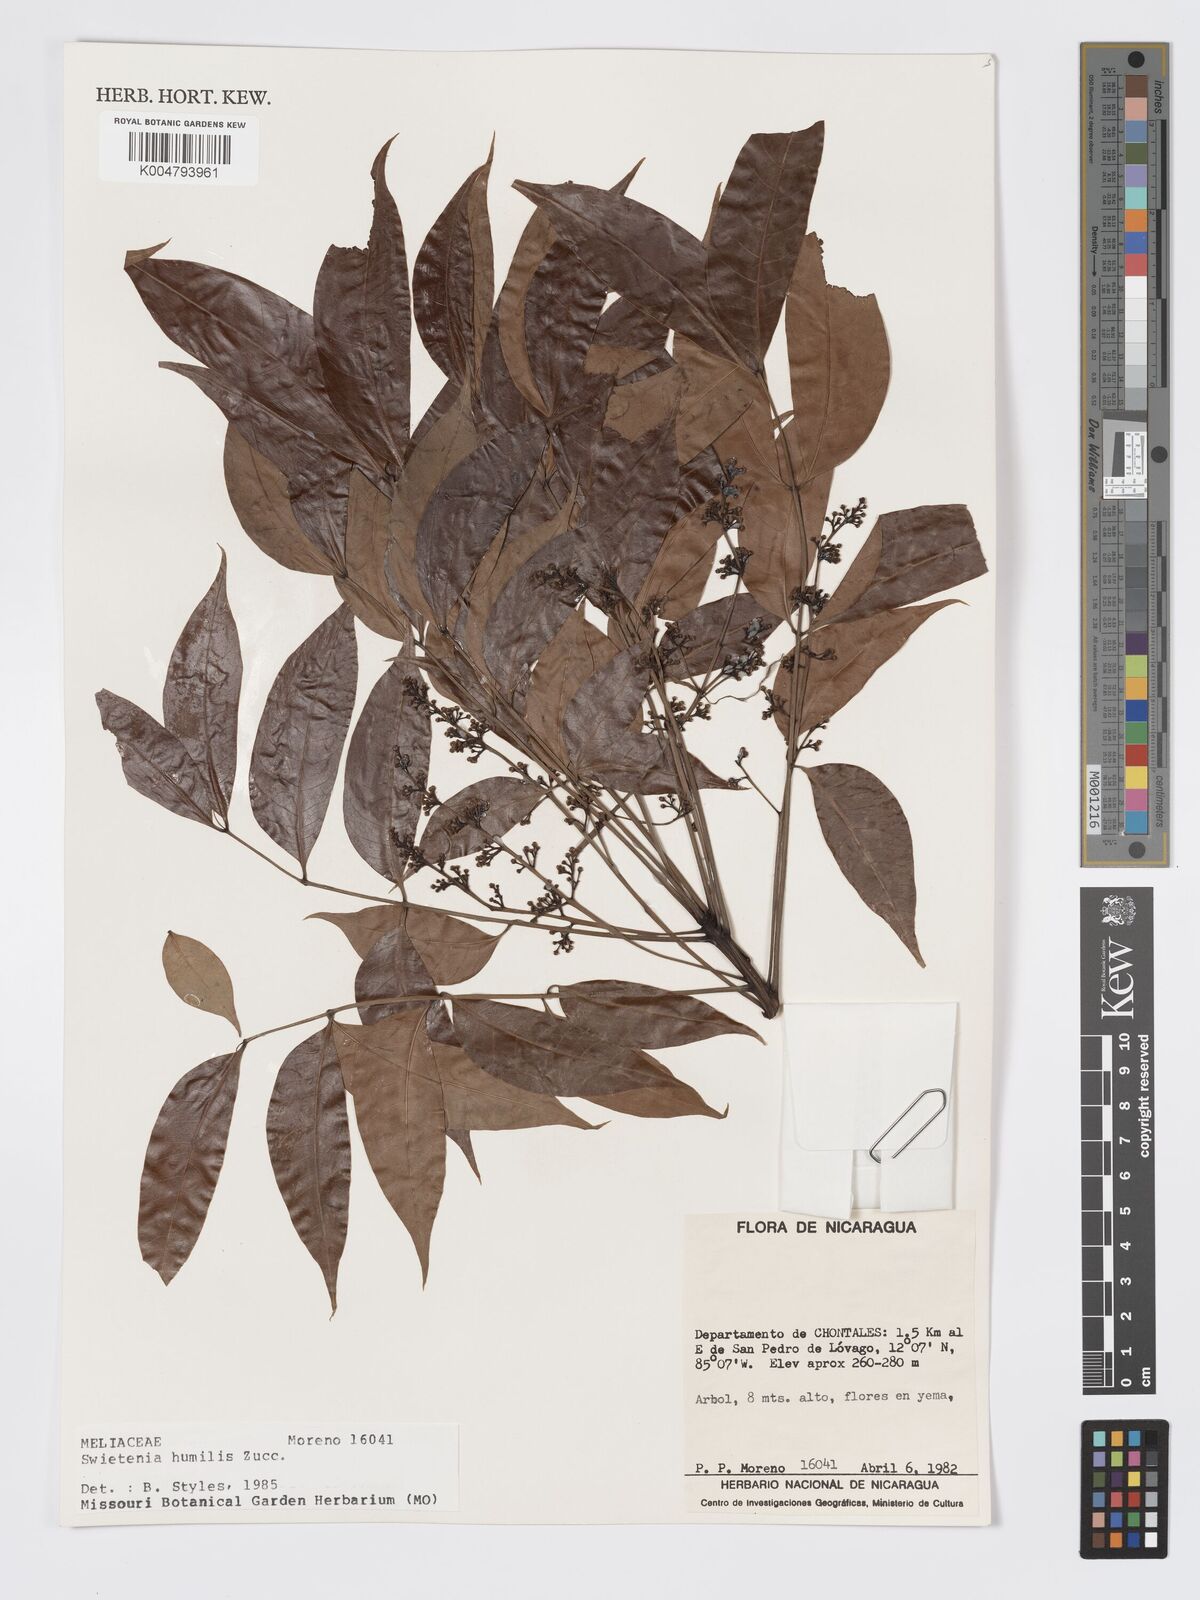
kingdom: Plantae
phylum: Tracheophyta
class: Magnoliopsida
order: Sapindales
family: Meliaceae
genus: Swietenia
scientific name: Swietenia humilis
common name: Pacific coast mahogany
